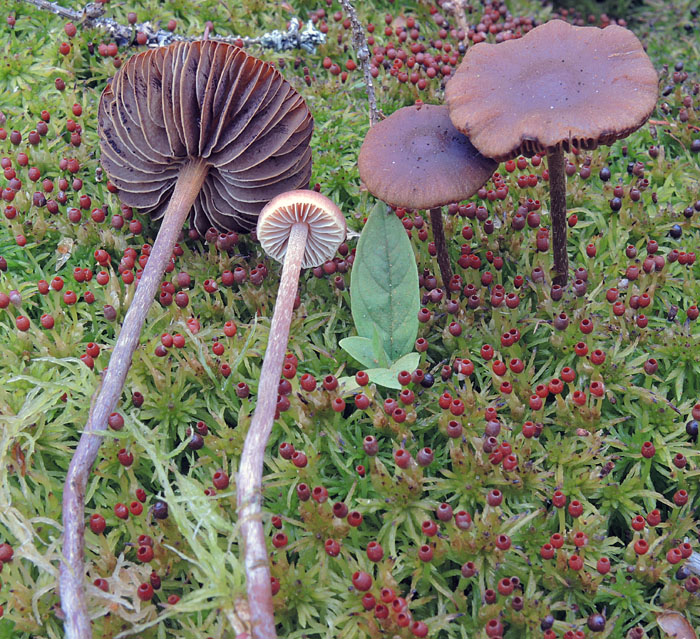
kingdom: Fungi
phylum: Basidiomycota
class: Agaricomycetes
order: Agaricales
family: Strophariaceae
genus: Bogbodia
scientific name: Bogbodia uda
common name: tørve-svovlhat
